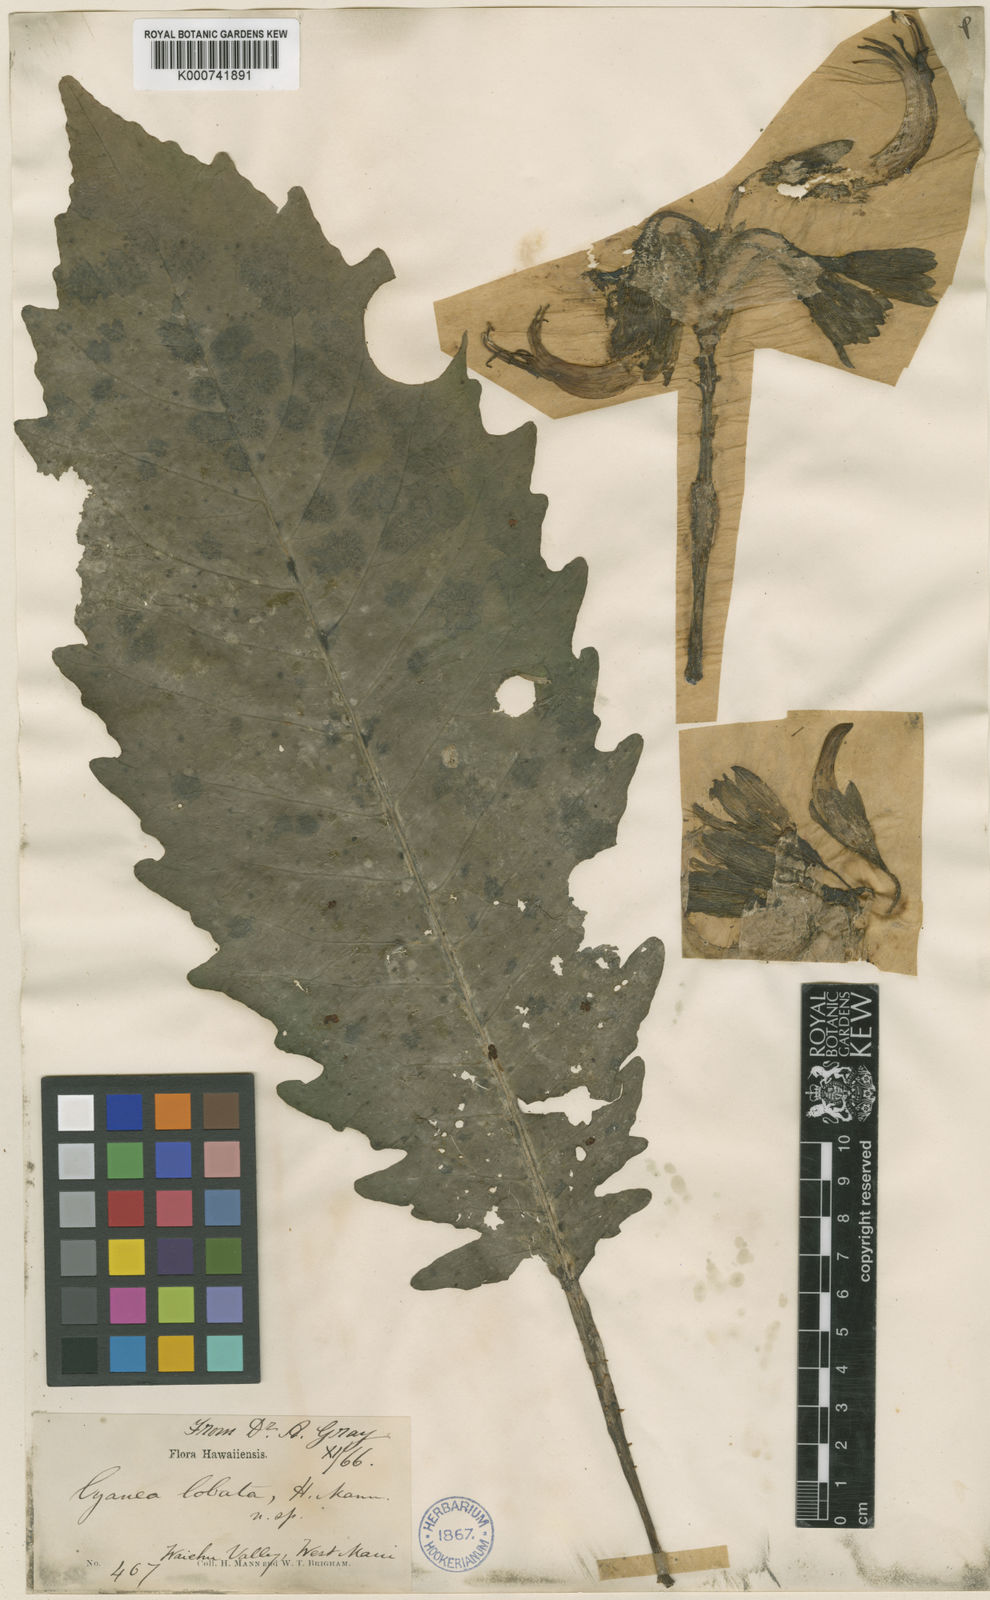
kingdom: Plantae
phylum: Tracheophyta
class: Magnoliopsida
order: Asterales
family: Campanulaceae
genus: Cyanea
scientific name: Cyanea lobata
